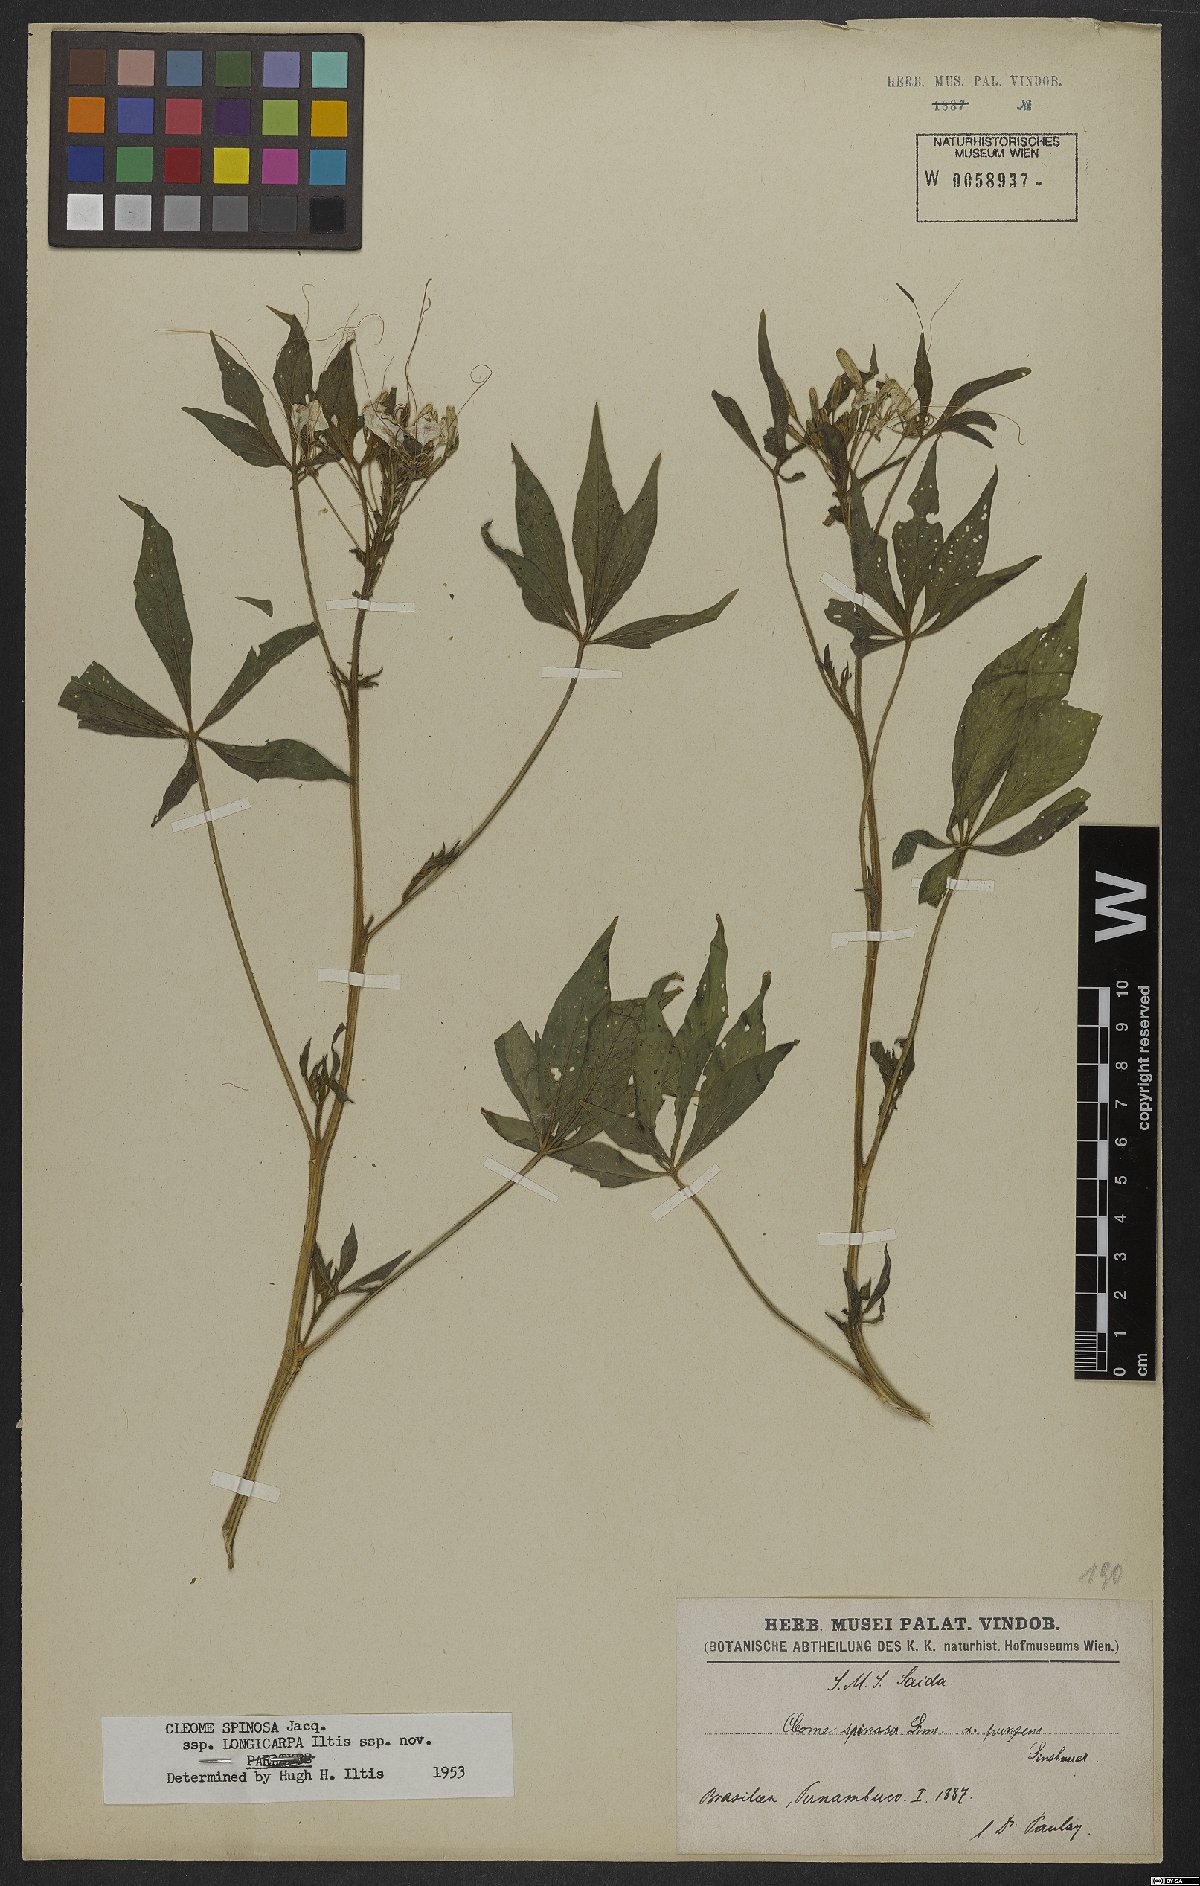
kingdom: Plantae
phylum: Tracheophyta
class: Magnoliopsida
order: Brassicales
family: Cleomaceae
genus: Tarenaya
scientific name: Tarenaya
